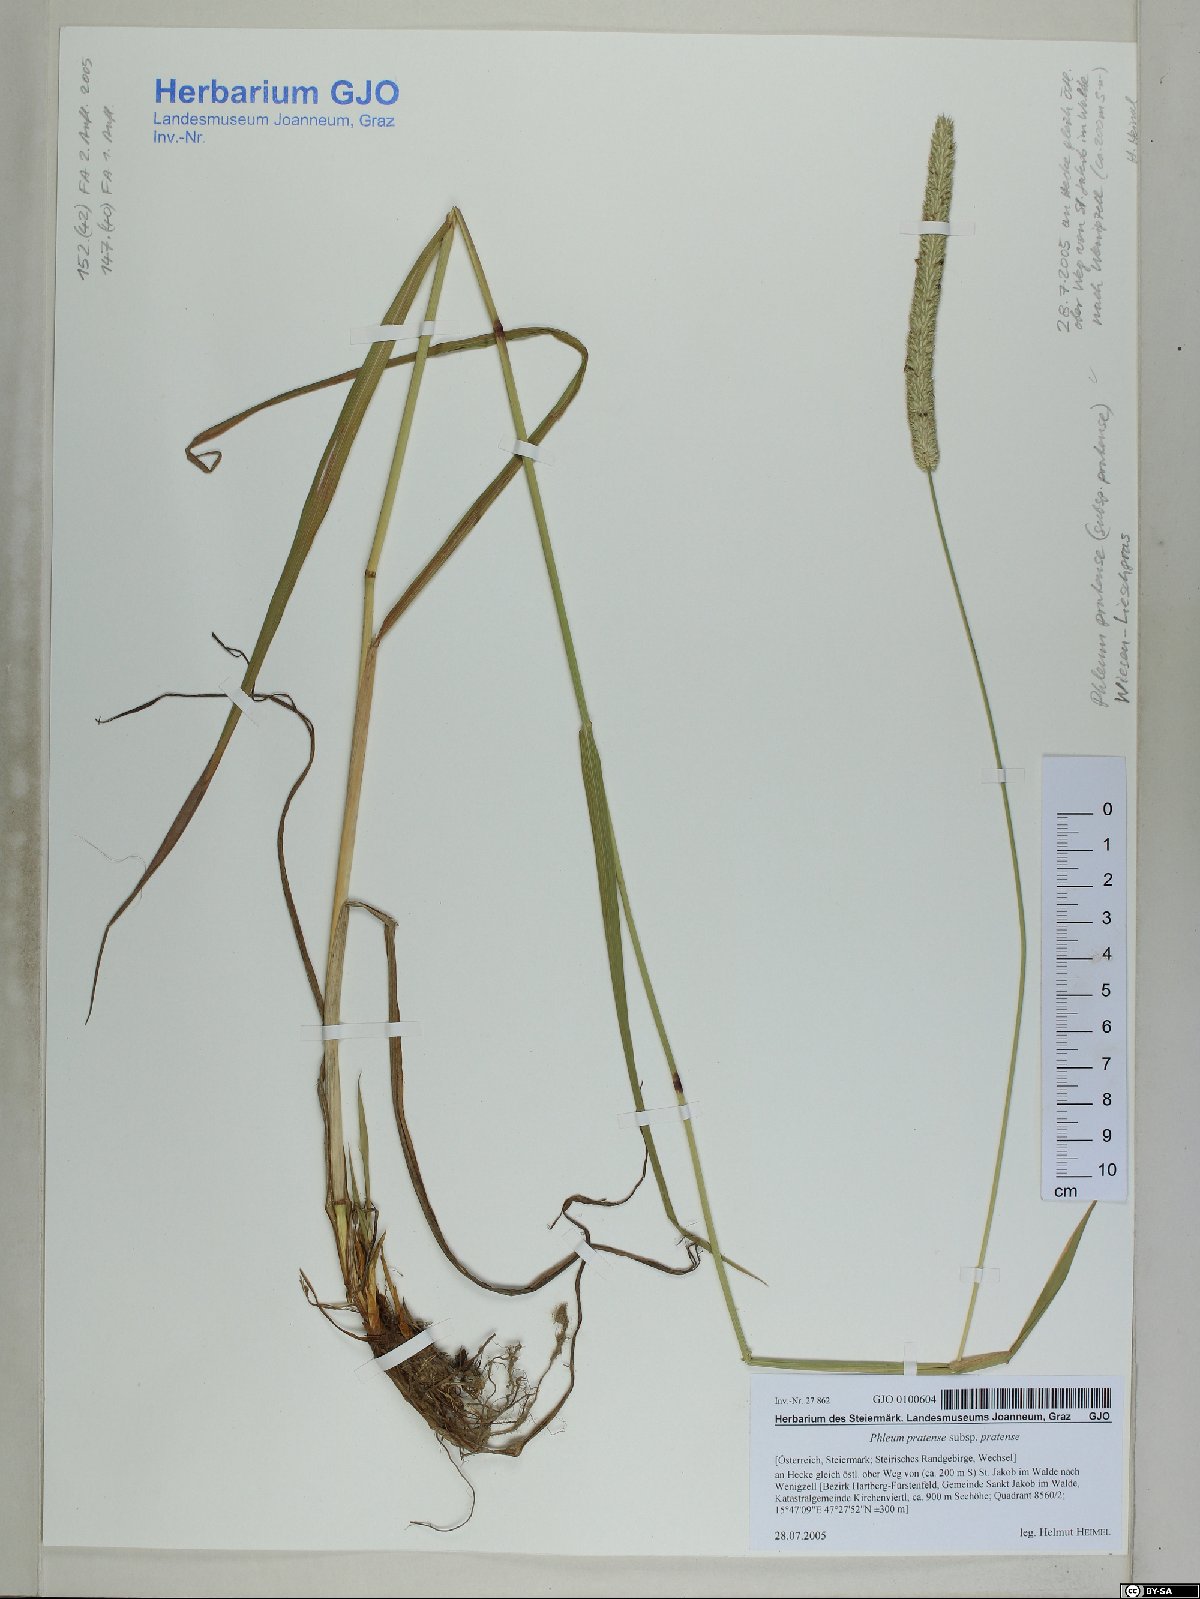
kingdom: Plantae
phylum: Tracheophyta
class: Liliopsida
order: Poales
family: Poaceae
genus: Phleum
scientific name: Phleum pratense
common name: Timothy grass
